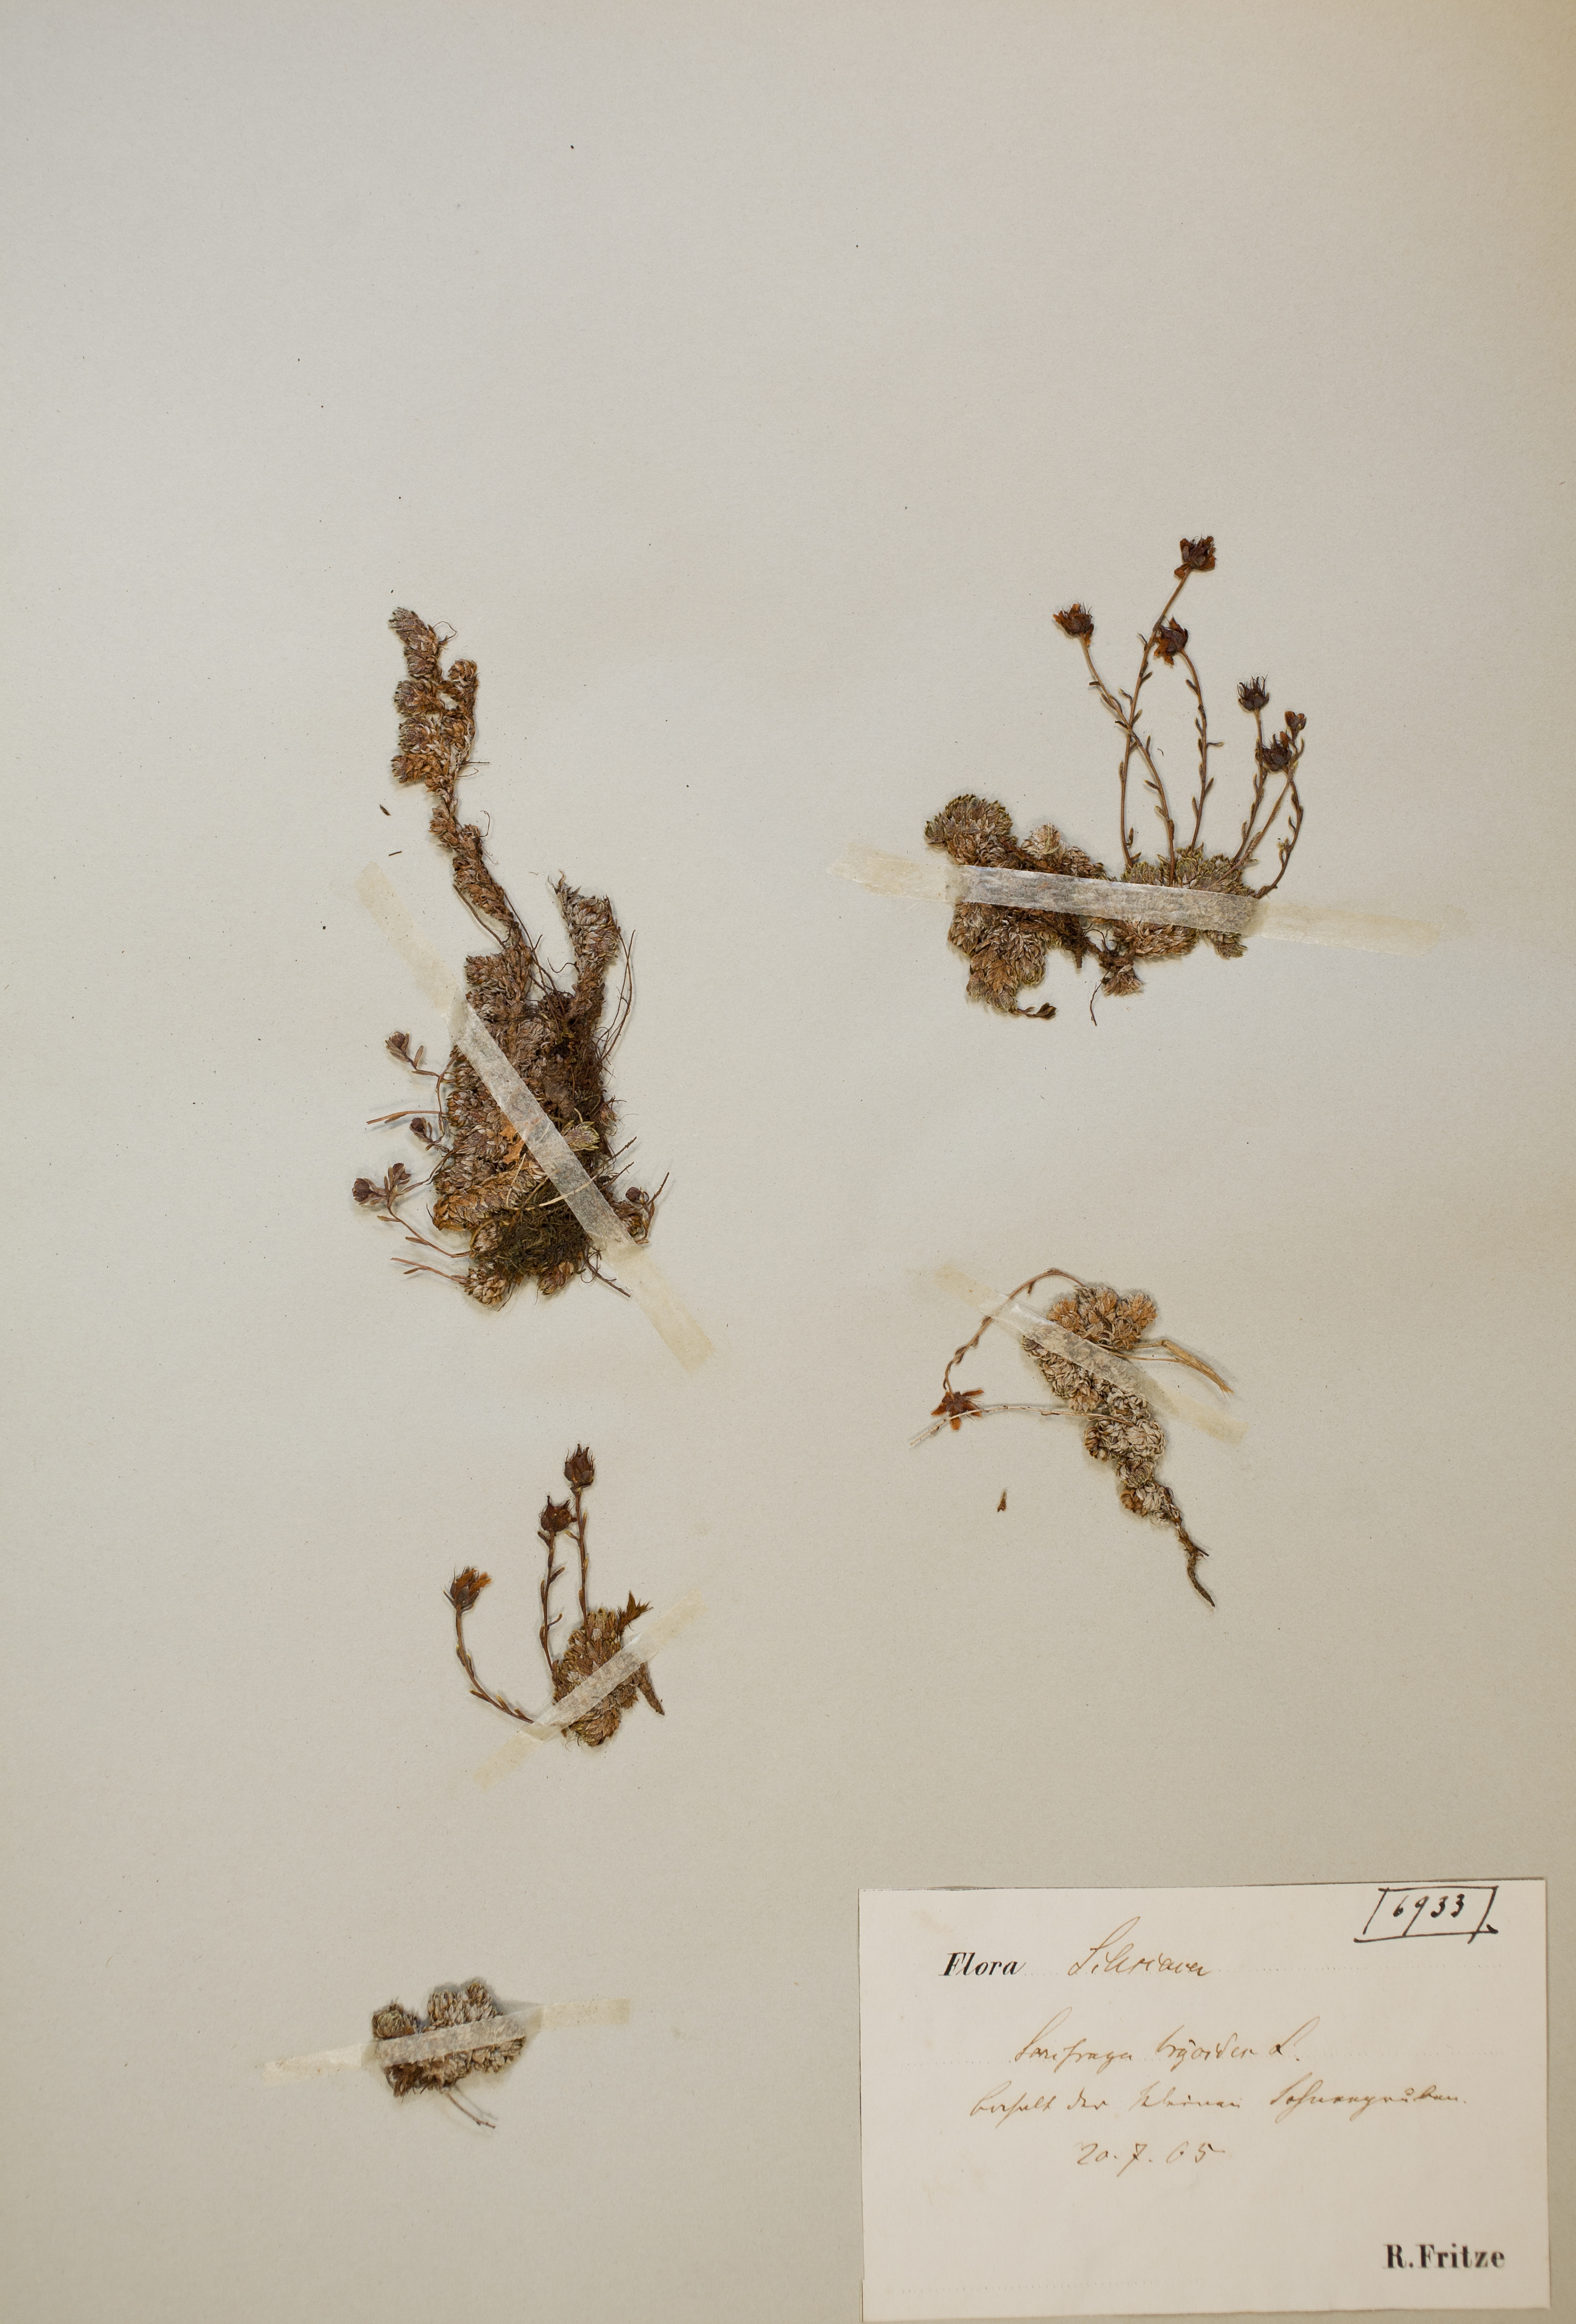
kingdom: Plantae
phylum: Tracheophyta
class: Magnoliopsida
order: Saxifragales
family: Saxifragaceae
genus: Saxifraga
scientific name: Saxifraga bryoides
